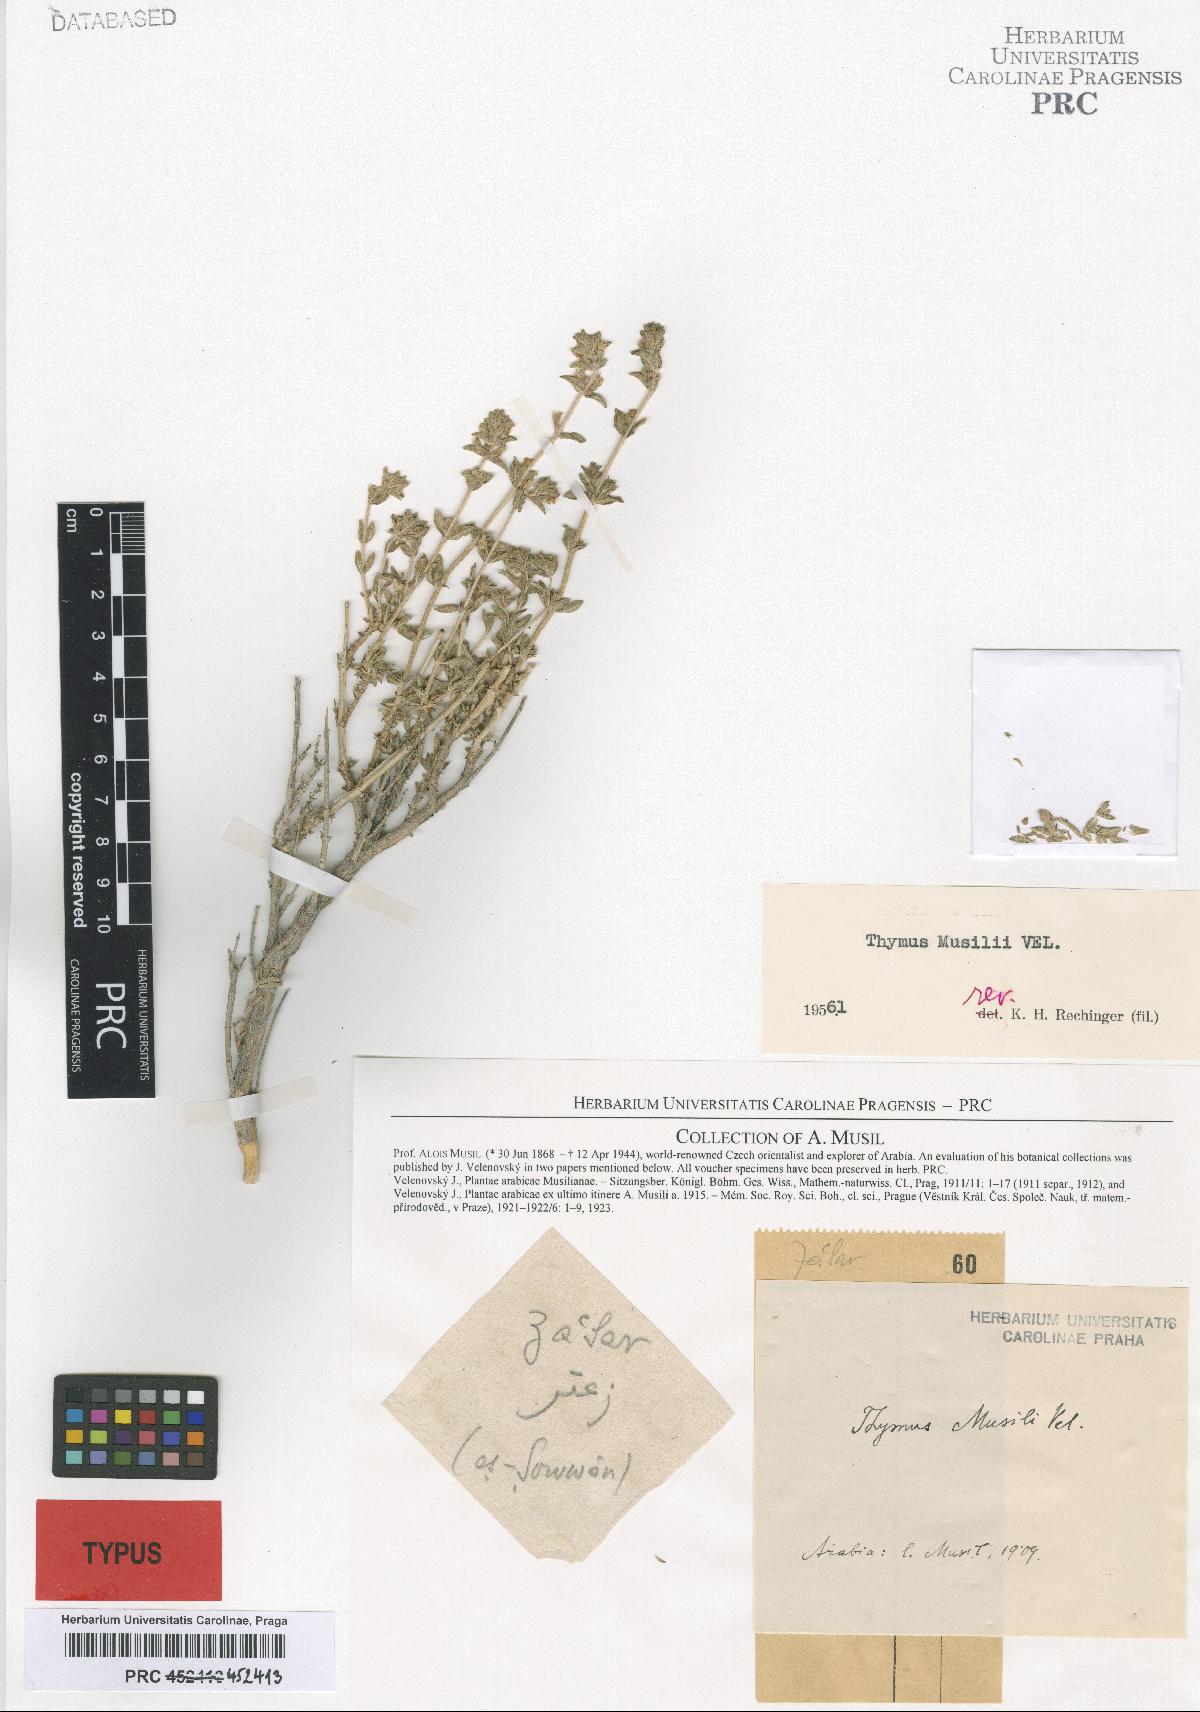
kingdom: Plantae
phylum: Tracheophyta
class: Magnoliopsida
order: Lamiales
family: Lamiaceae
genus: Thymus
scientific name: Thymus musilii
